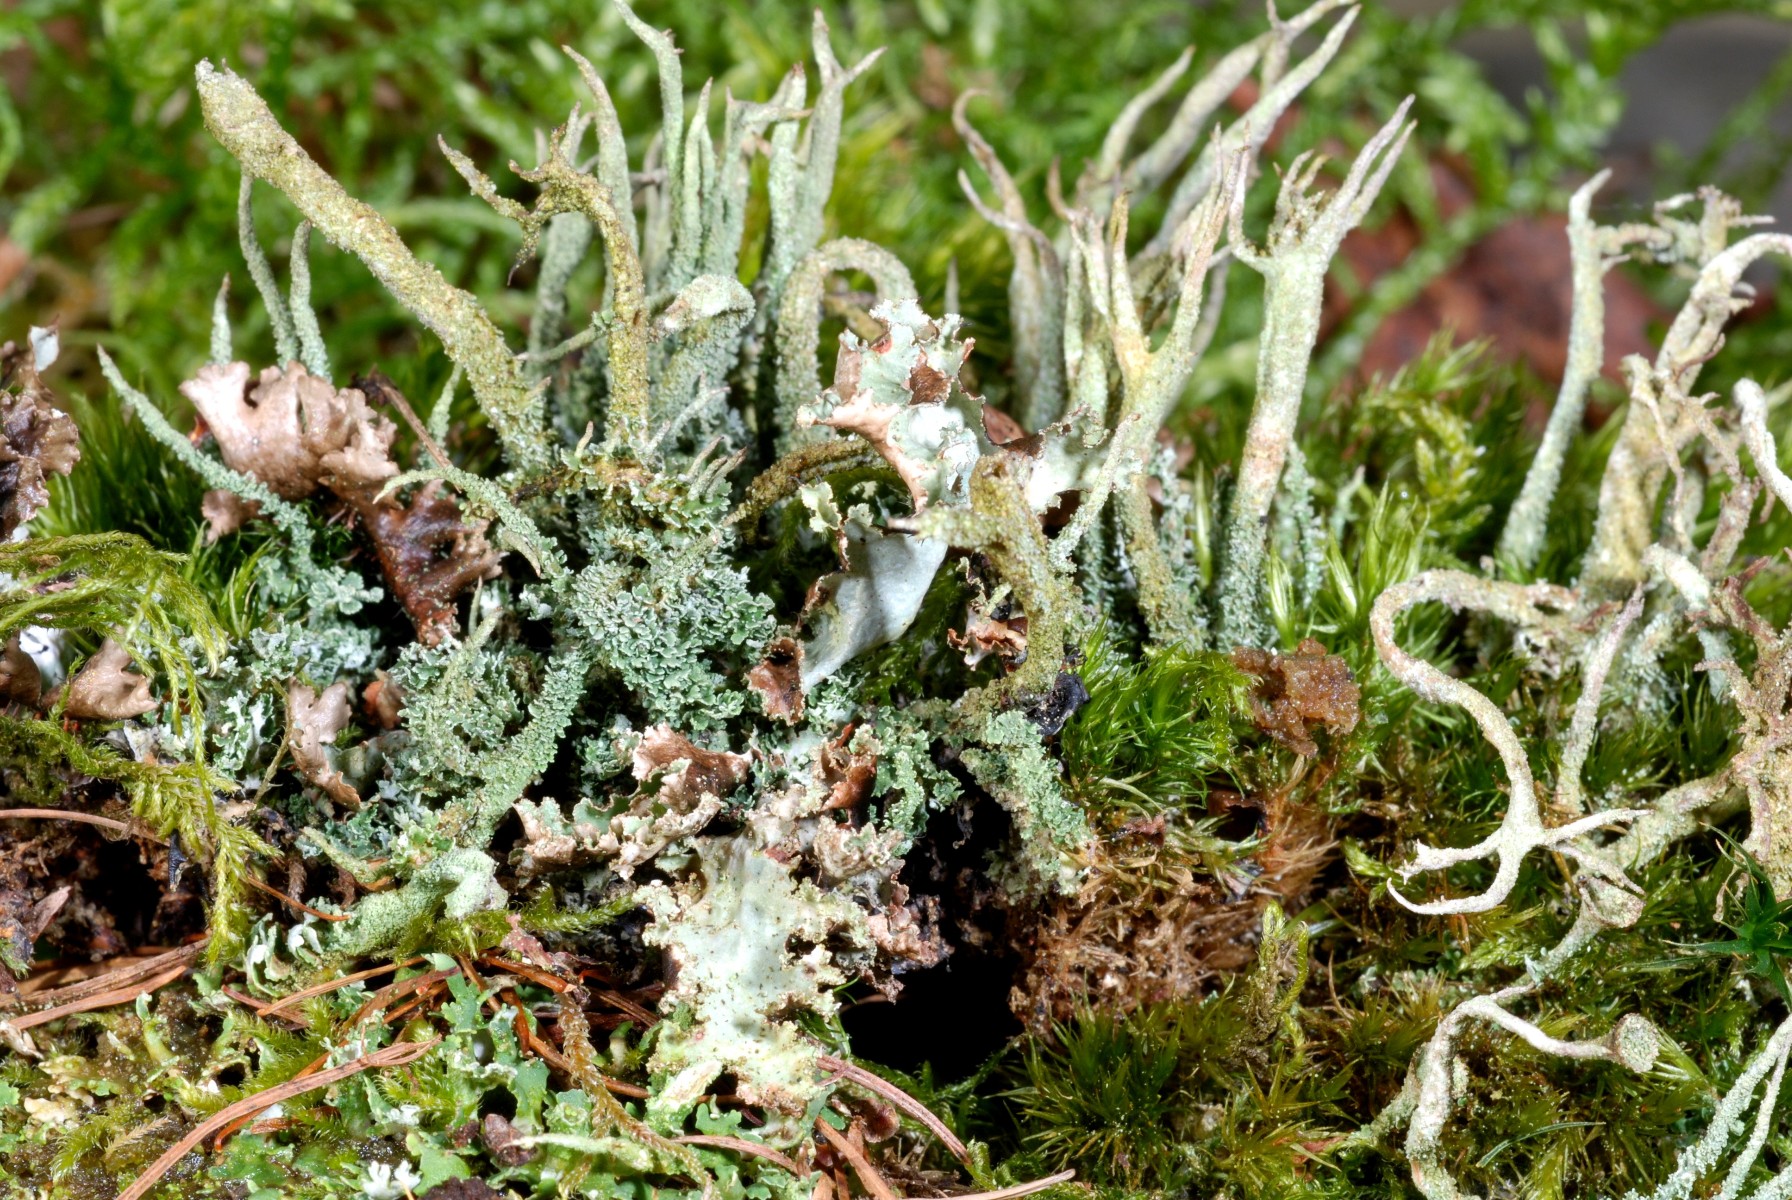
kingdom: Fungi
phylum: Ascomycota
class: Lecanoromycetes
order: Lecanorales
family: Cladoniaceae
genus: Cladonia
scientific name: Cladonia glauca
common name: grågrøn bægerlav
